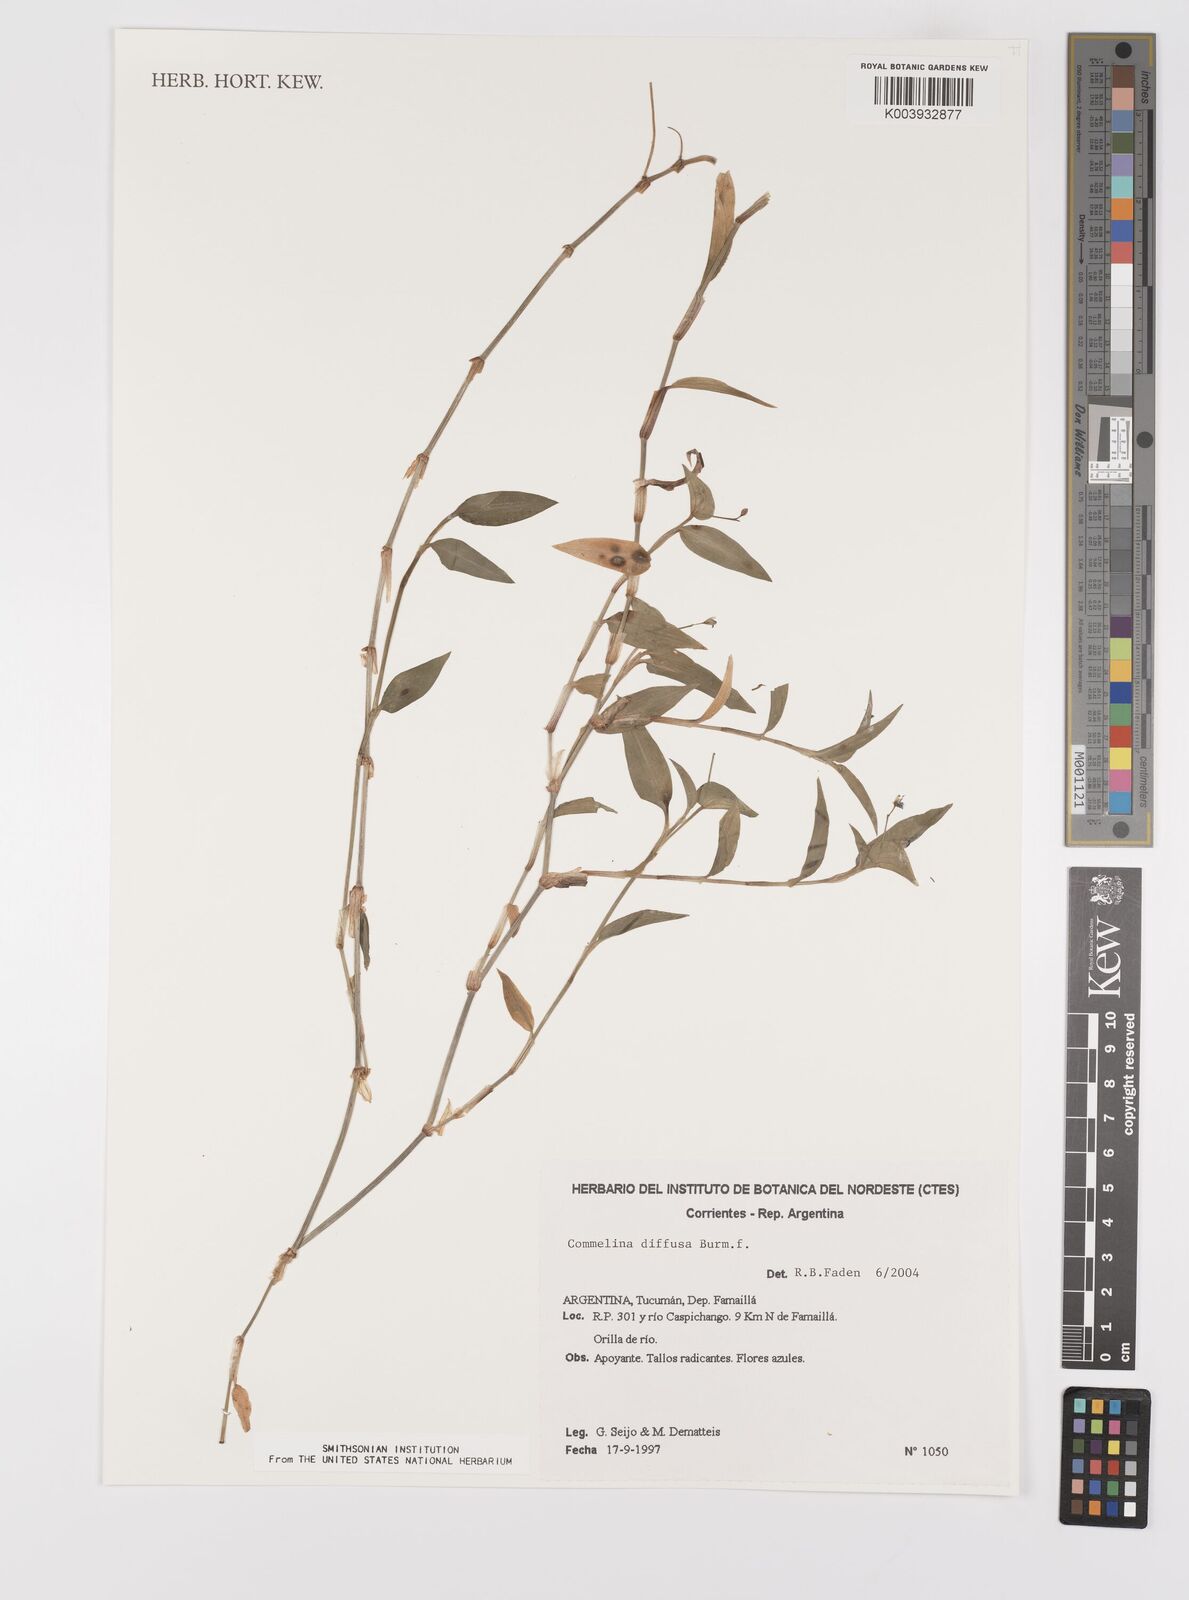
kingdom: Plantae
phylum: Tracheophyta
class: Liliopsida
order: Commelinales
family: Commelinaceae
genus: Commelina
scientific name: Commelina diffusa
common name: Climbing dayflower
